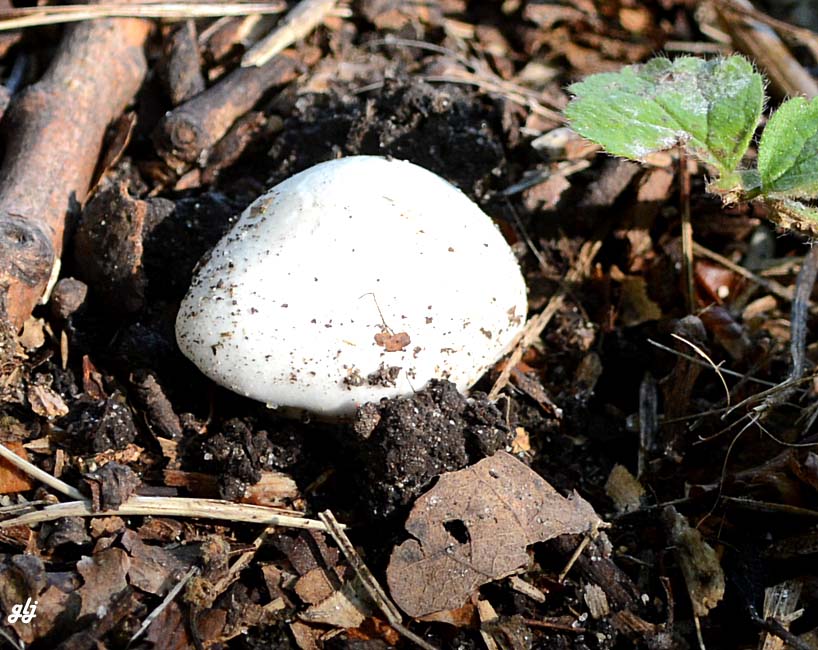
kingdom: Fungi
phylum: Basidiomycota
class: Agaricomycetes
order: Agaricales
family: Amanitaceae
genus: Amanita
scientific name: Amanita phalloides
